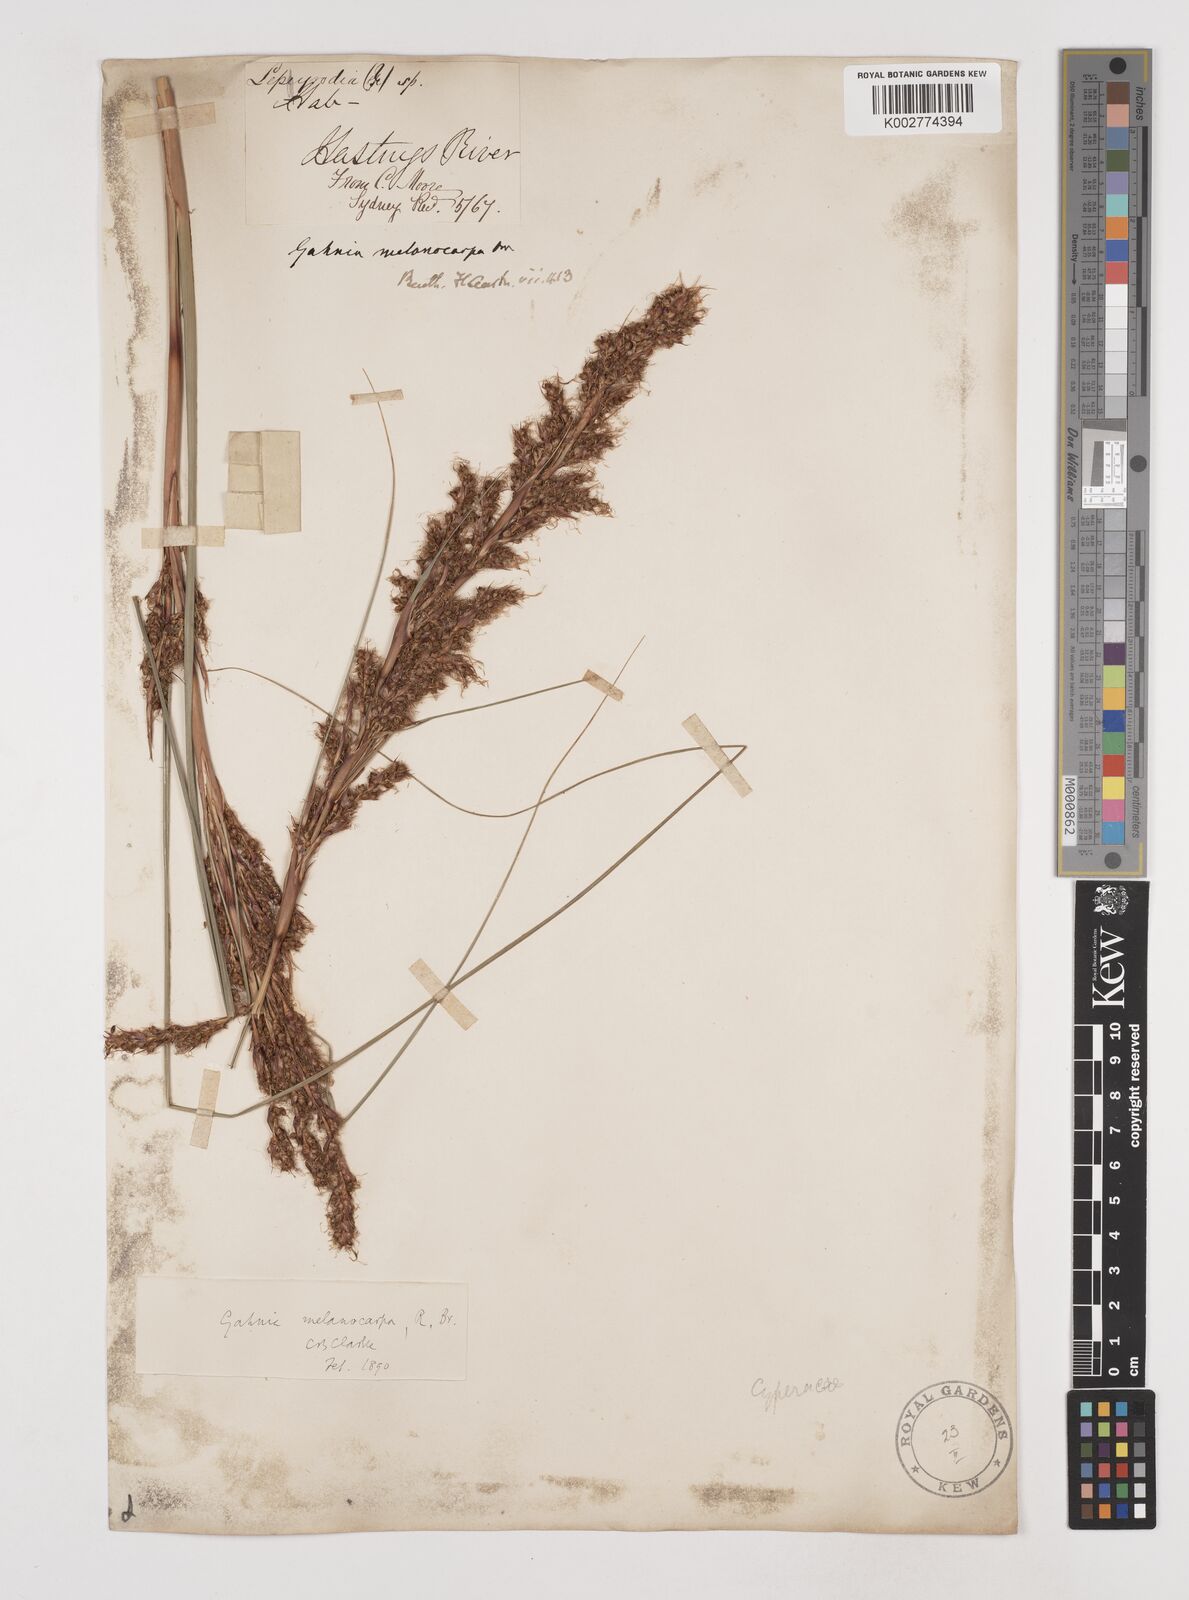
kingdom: Plantae
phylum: Tracheophyta
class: Liliopsida
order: Poales
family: Cyperaceae
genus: Gahnia
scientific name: Gahnia melanocarpa
